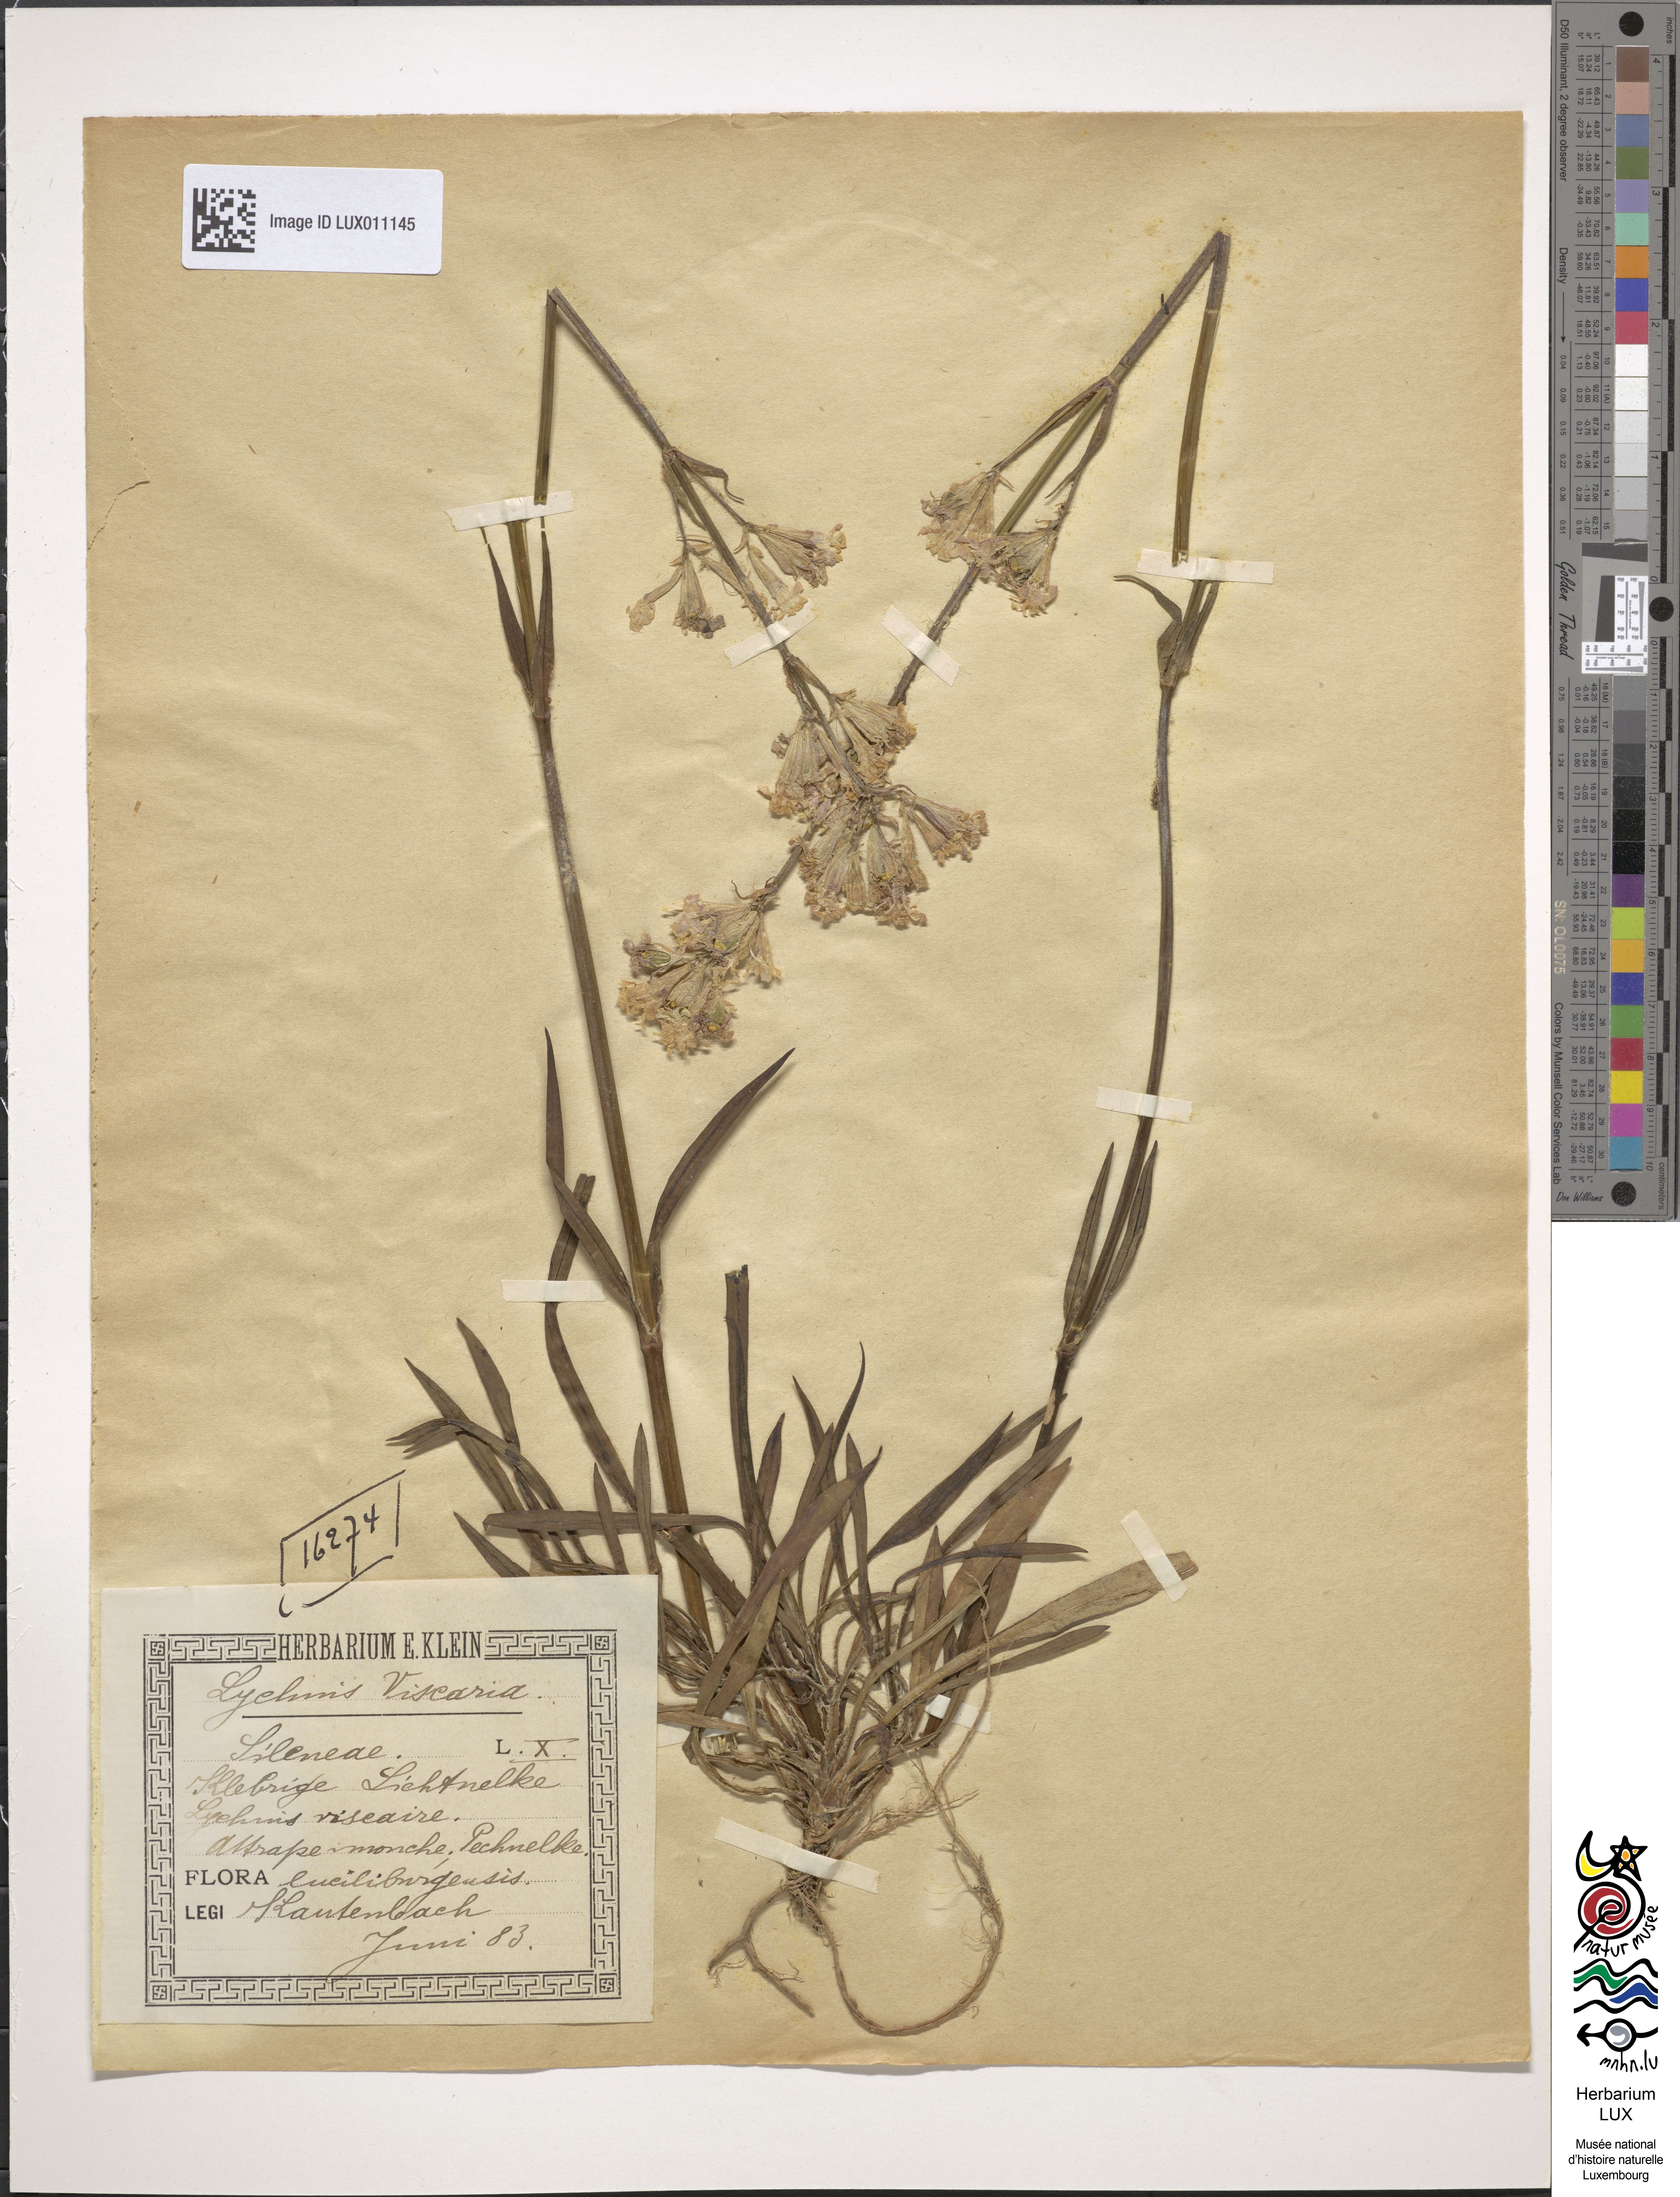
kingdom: Plantae
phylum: Tracheophyta
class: Magnoliopsida
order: Caryophyllales
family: Caryophyllaceae
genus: Viscaria
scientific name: Viscaria vulgaris
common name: Clammy campion
